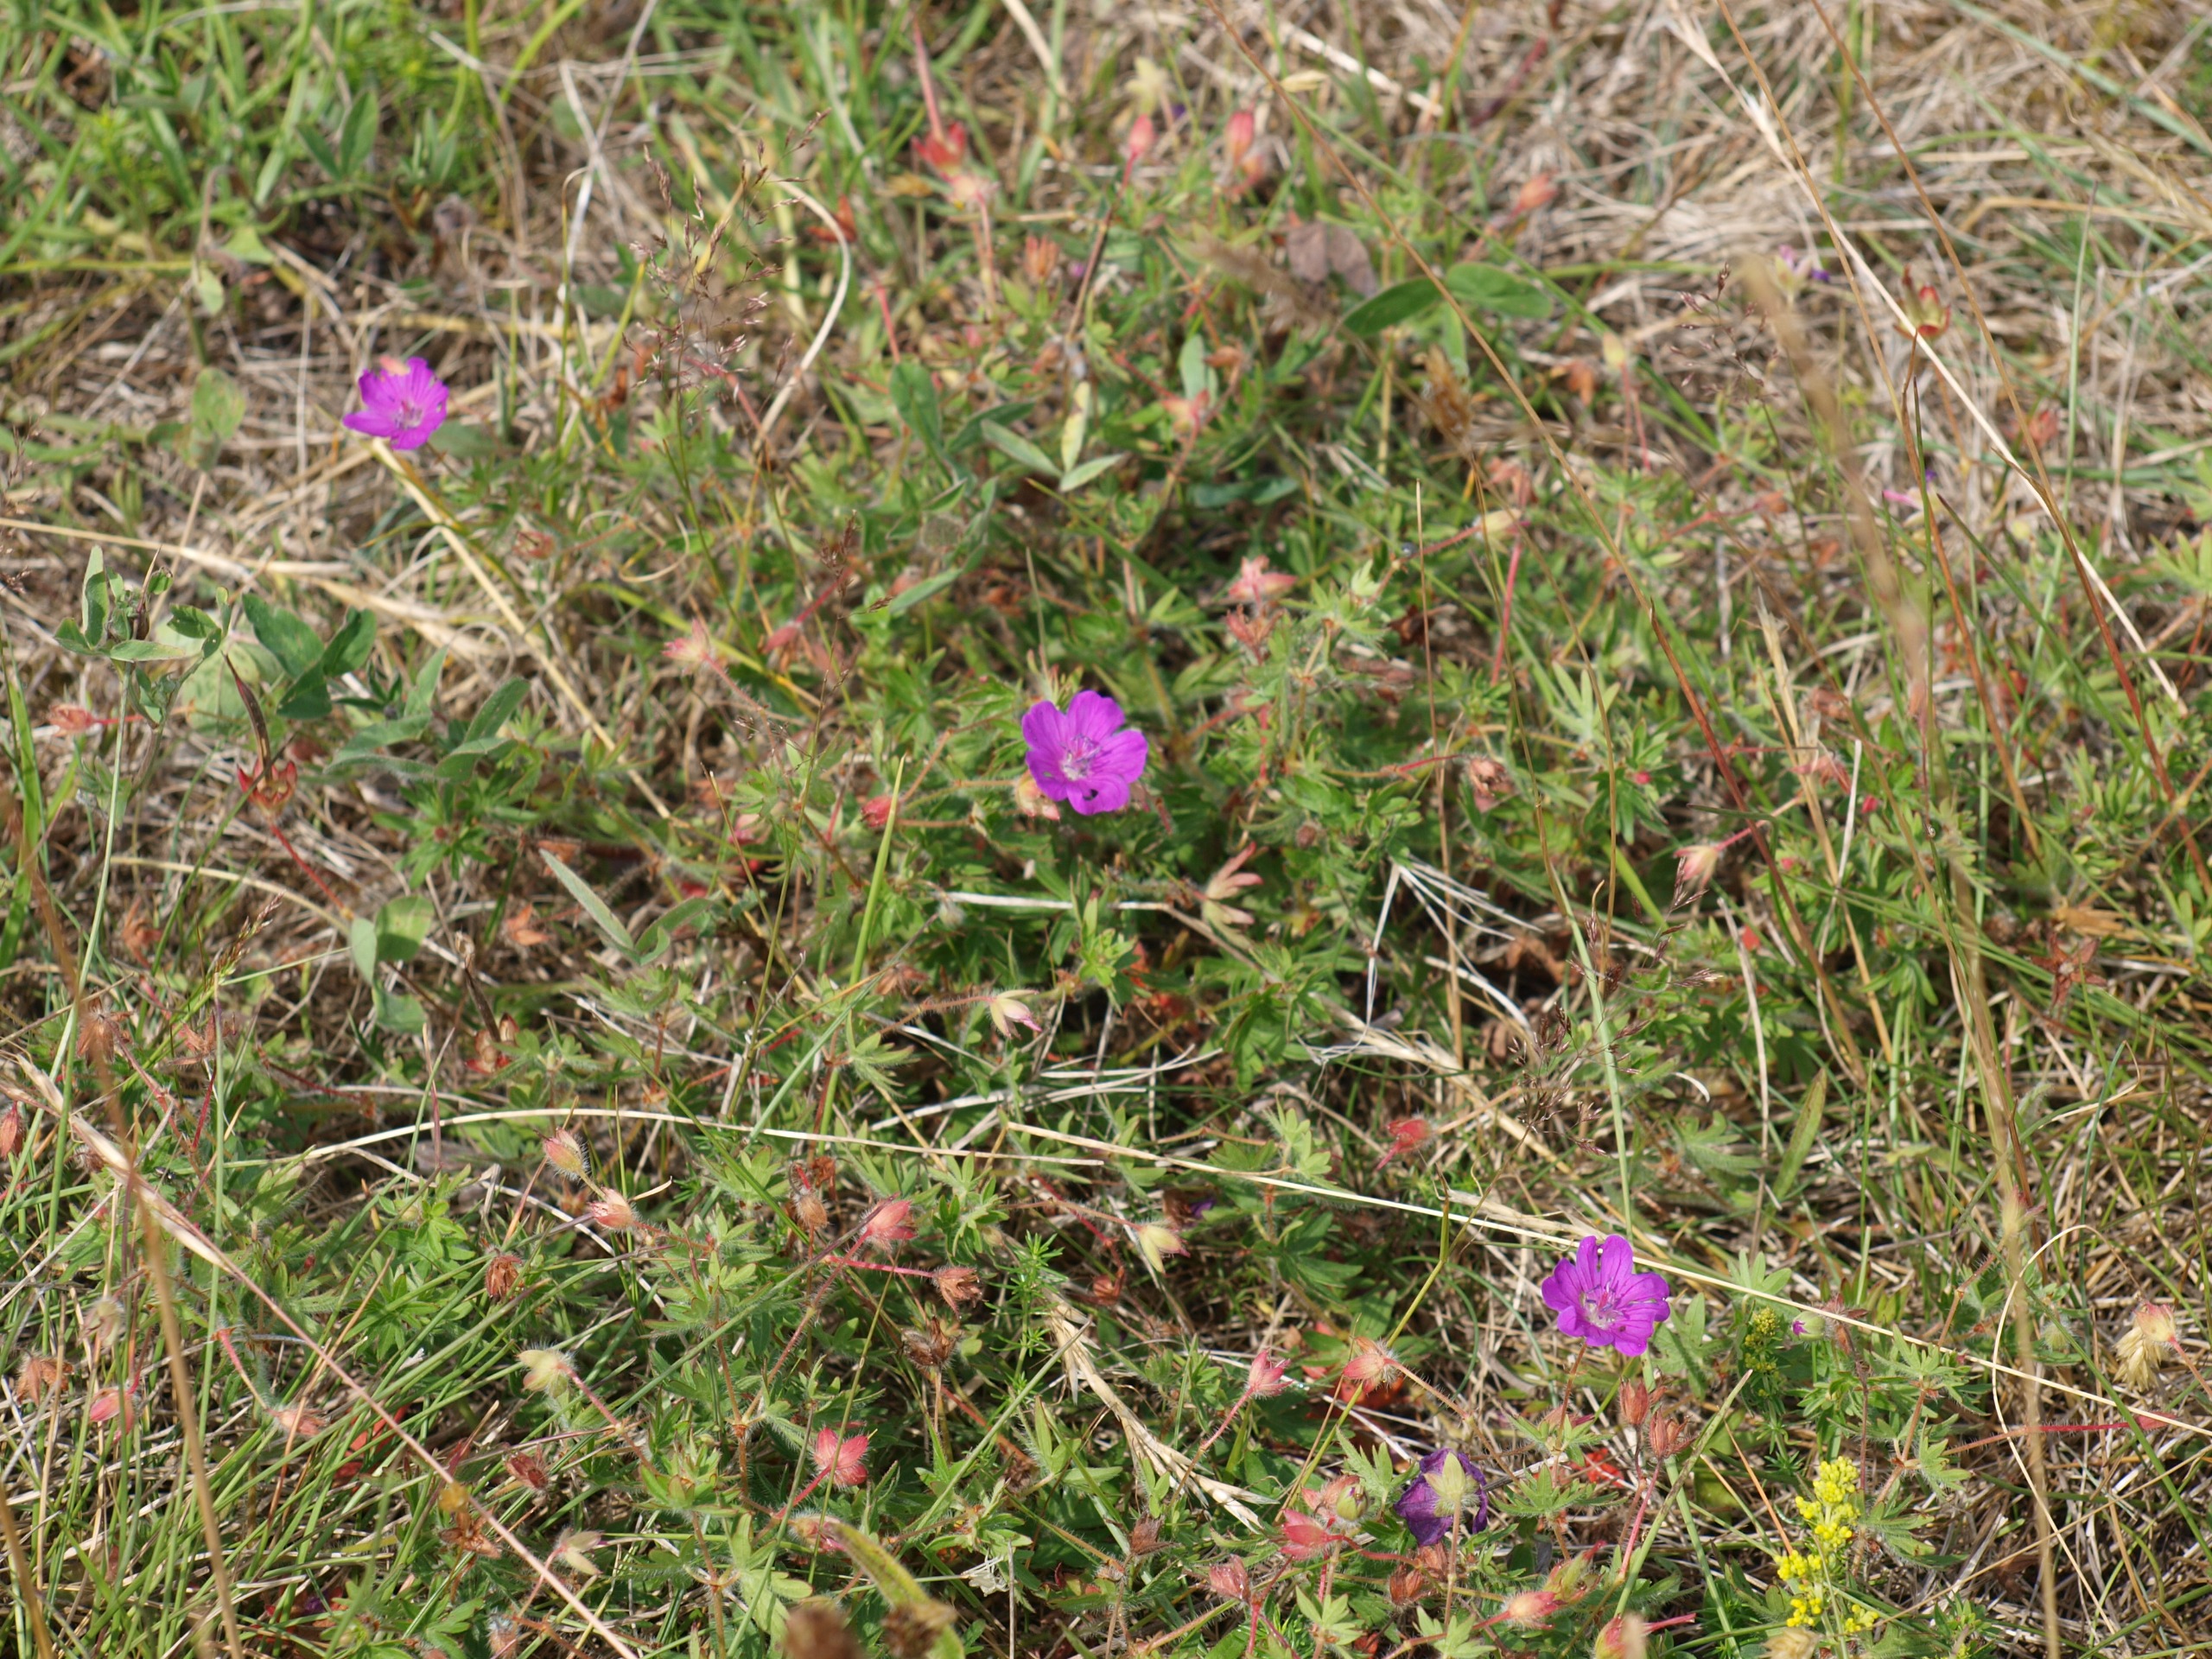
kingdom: Plantae
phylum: Tracheophyta
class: Magnoliopsida
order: Geraniales
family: Geraniaceae
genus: Geranium
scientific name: Geranium sanguineum
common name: Blodrød storkenæb
